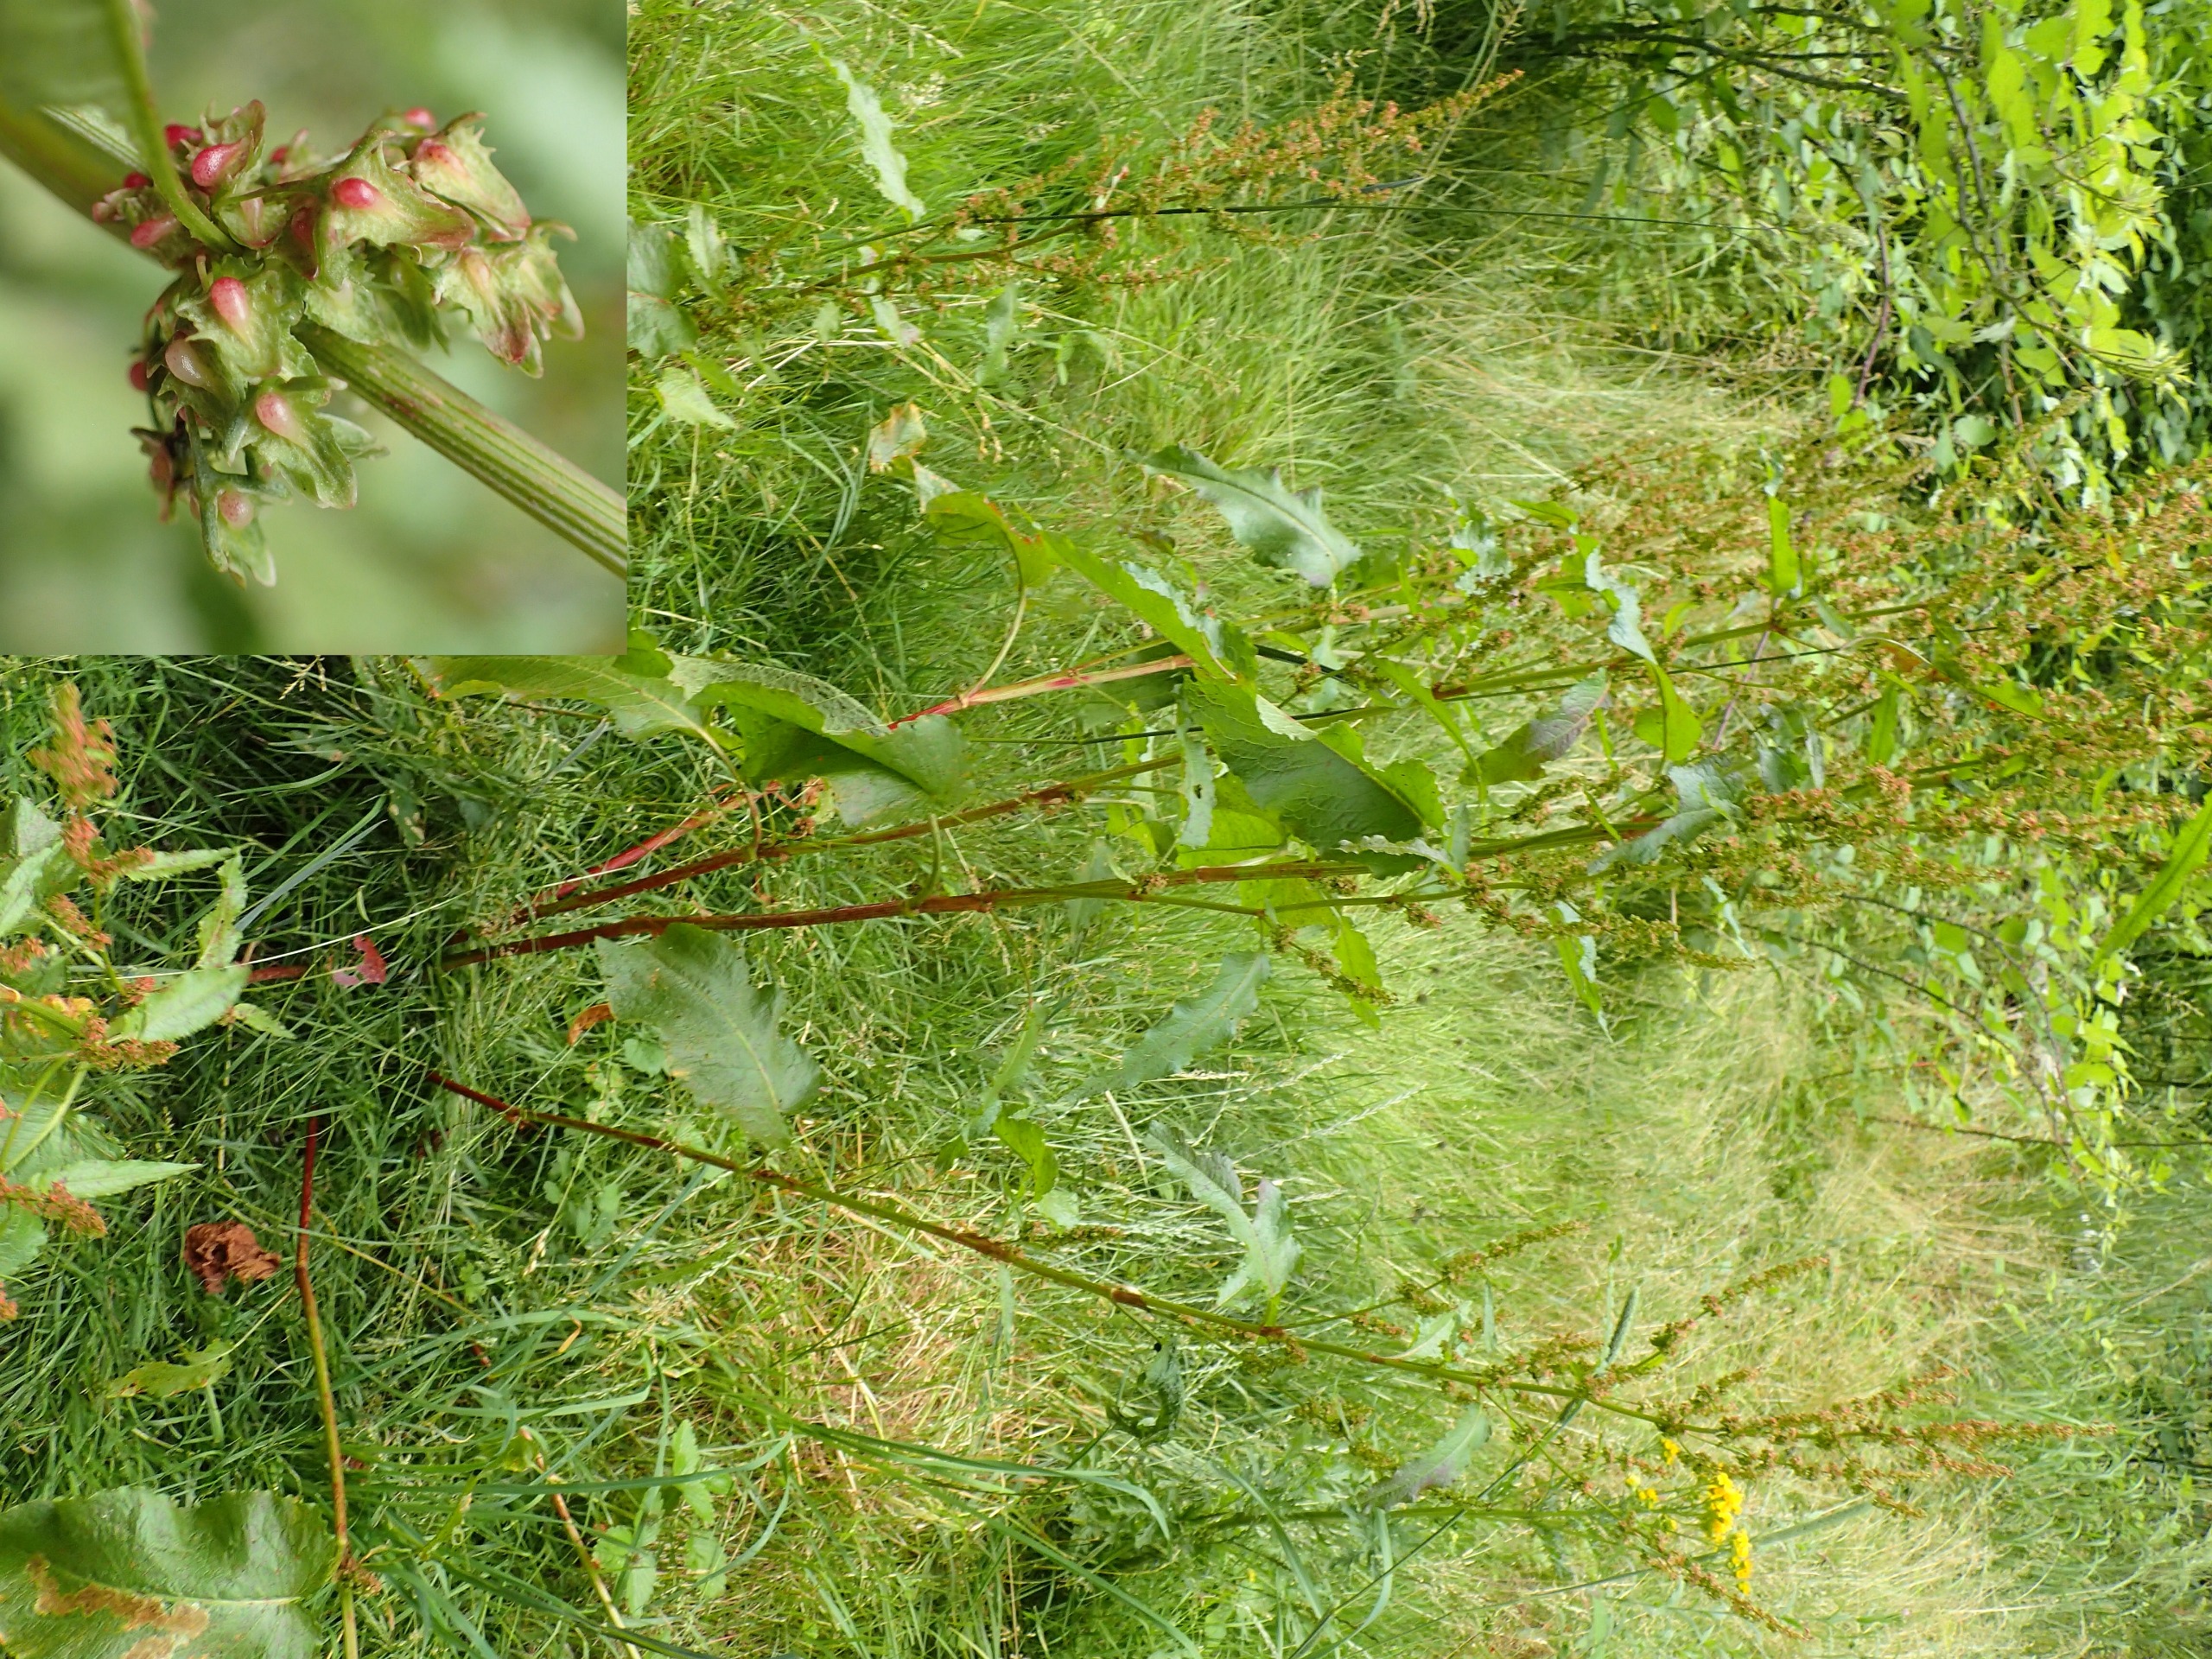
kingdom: Plantae
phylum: Tracheophyta
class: Magnoliopsida
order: Caryophyllales
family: Polygonaceae
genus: Rumex
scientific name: Rumex obtusifolius
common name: Butbladet skræppe
